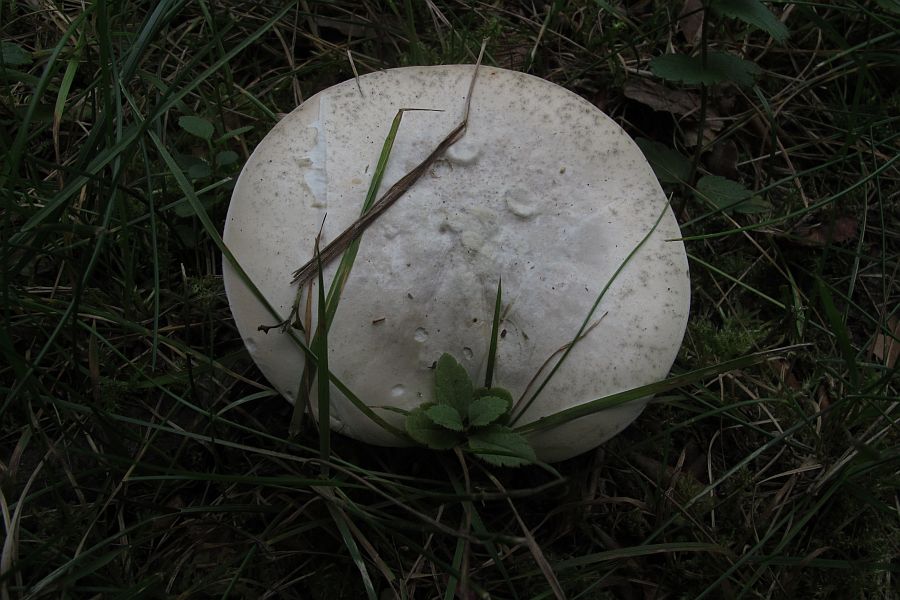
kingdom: Fungi
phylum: Basidiomycota
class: Agaricomycetes
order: Agaricales
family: Entolomataceae
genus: Clitopilus
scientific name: Clitopilus prunulus
